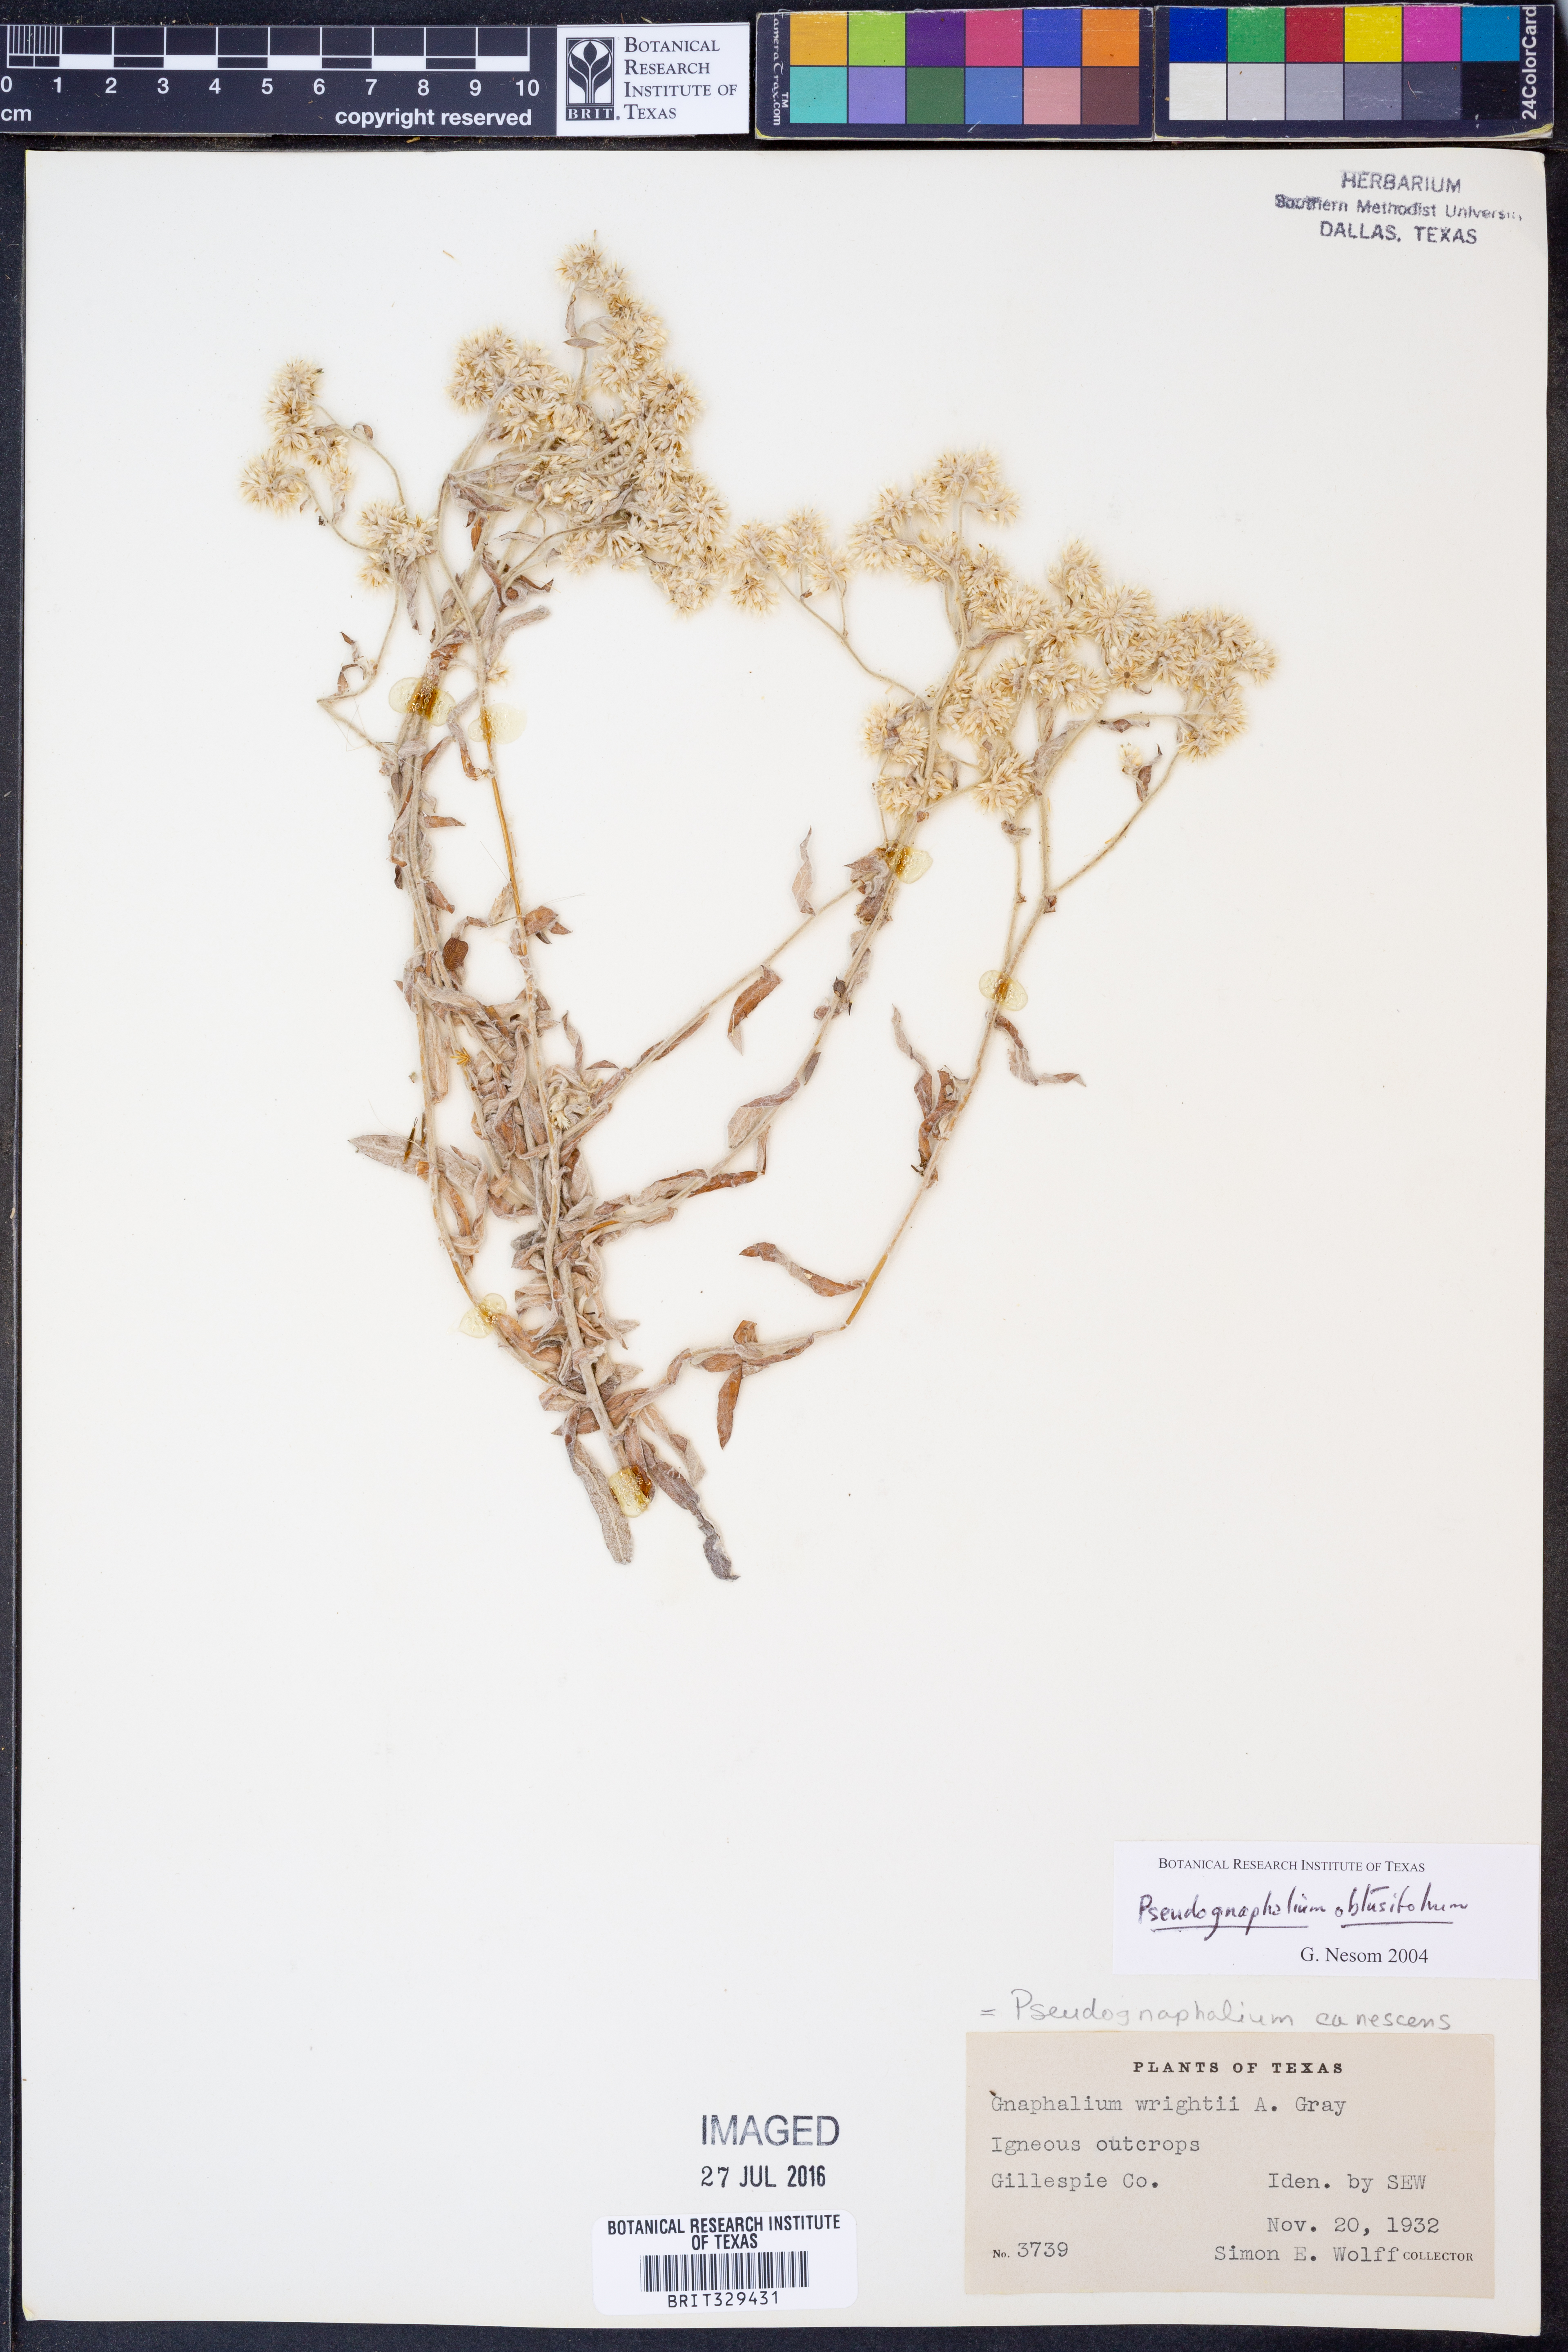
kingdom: Plantae
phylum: Tracheophyta
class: Magnoliopsida
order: Asterales
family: Asteraceae
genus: Pseudognaphalium
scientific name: Pseudognaphalium obtusifolium
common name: Eastern rabbit-tobacco
